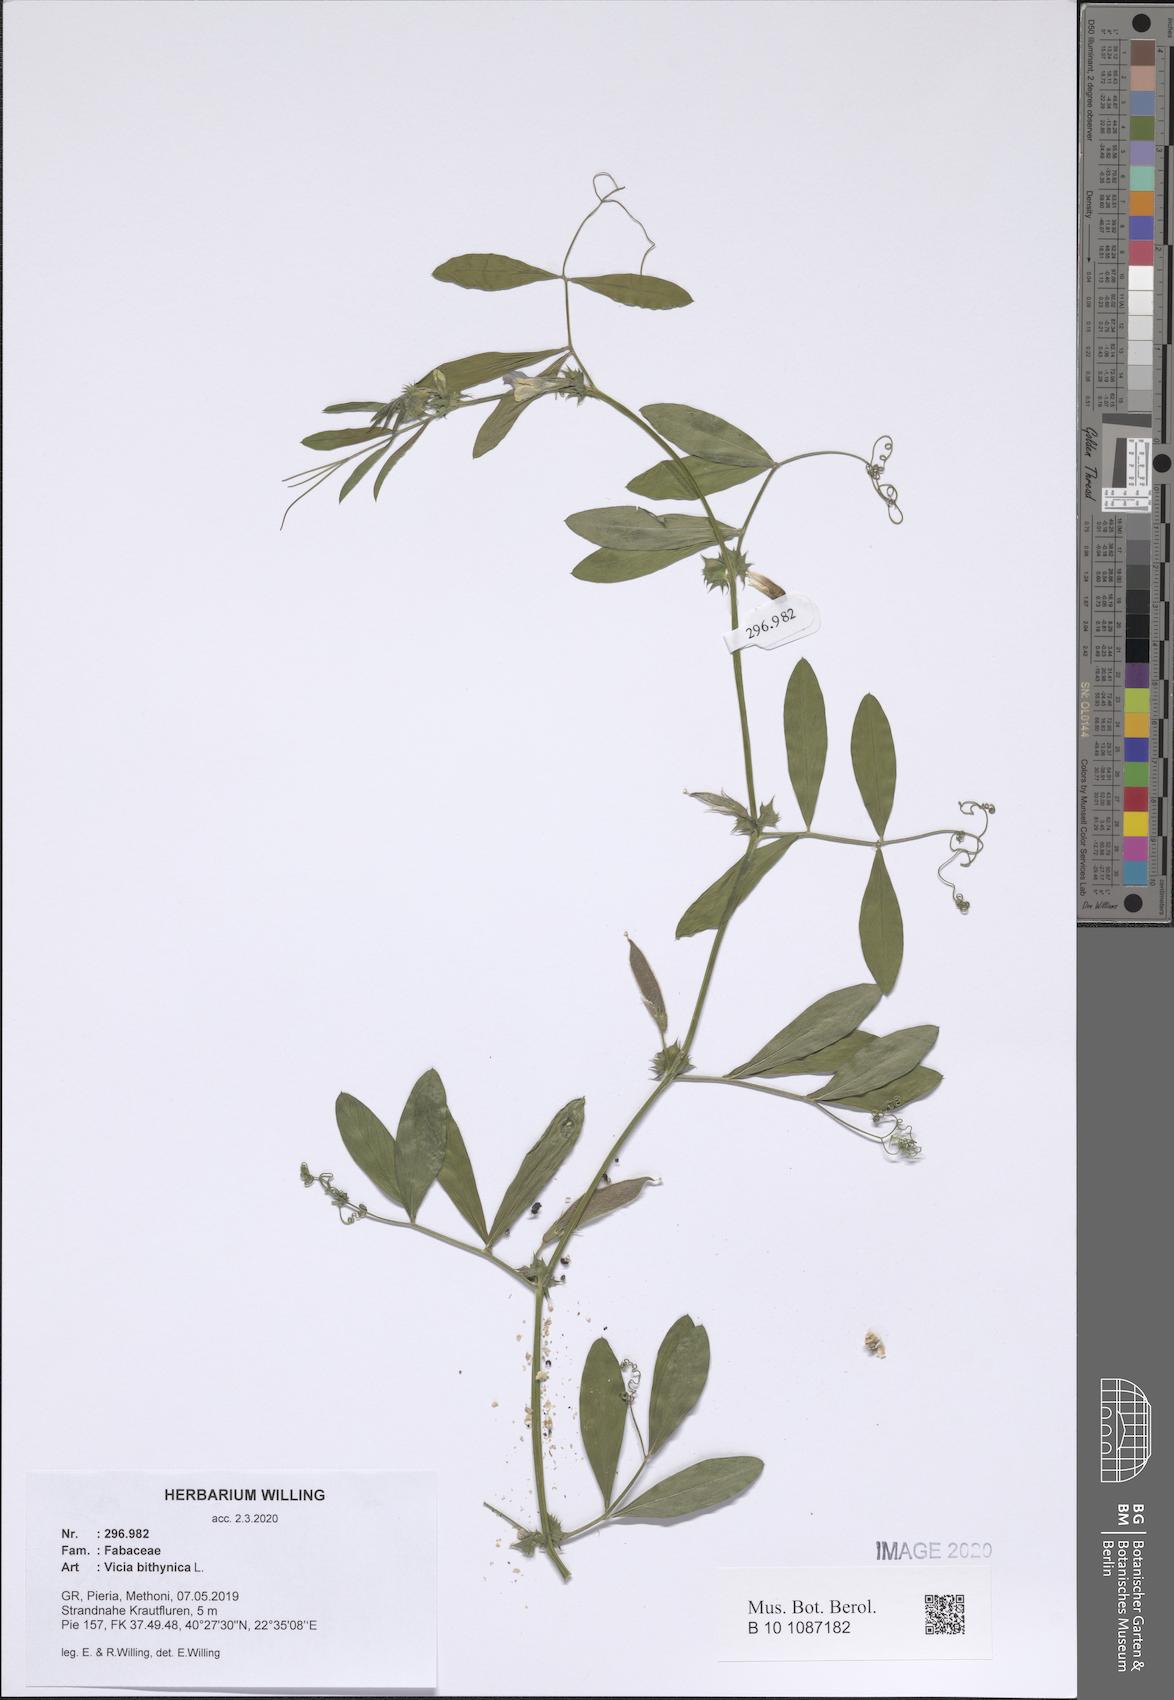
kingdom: Plantae
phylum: Tracheophyta
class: Magnoliopsida
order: Fabales
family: Fabaceae
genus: Vicia
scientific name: Vicia bithynica
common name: Bithynian vetch
